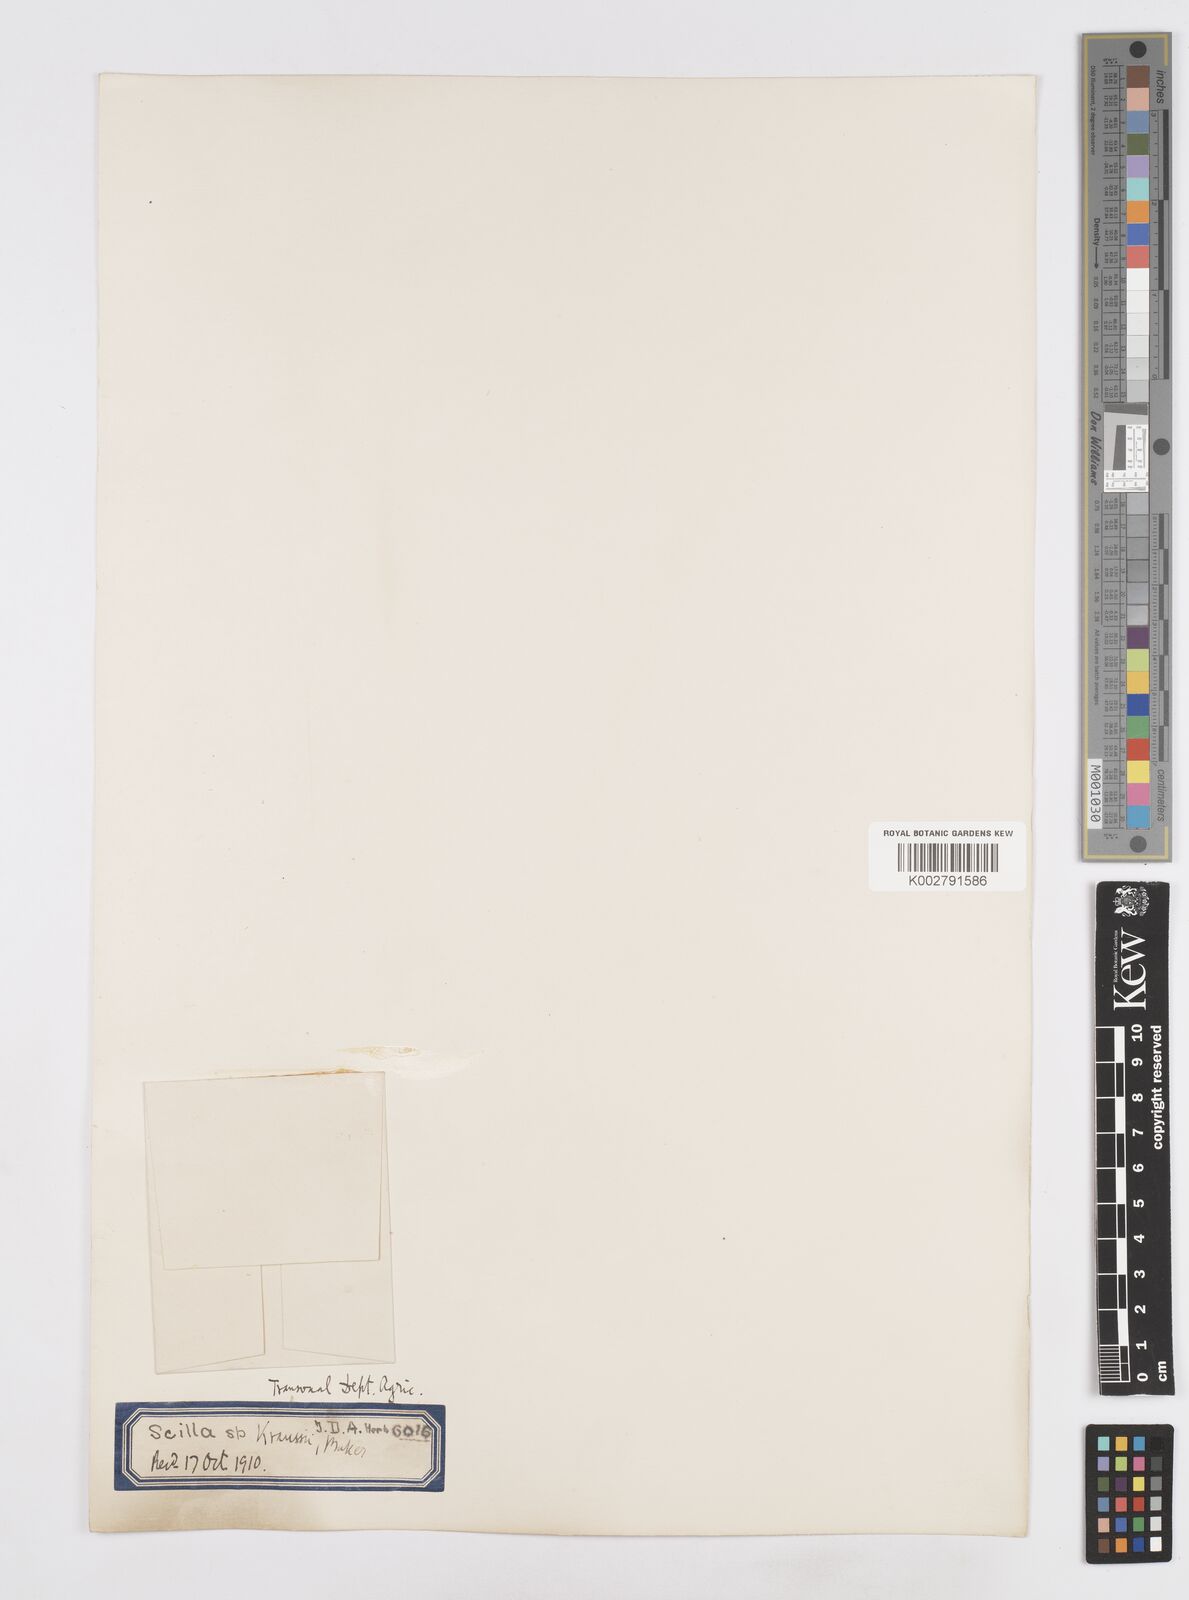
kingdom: Plantae
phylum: Tracheophyta
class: Liliopsida
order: Asparagales
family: Asparagaceae
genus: Merwilla
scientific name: Merwilla plumbea
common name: Blue-squill
